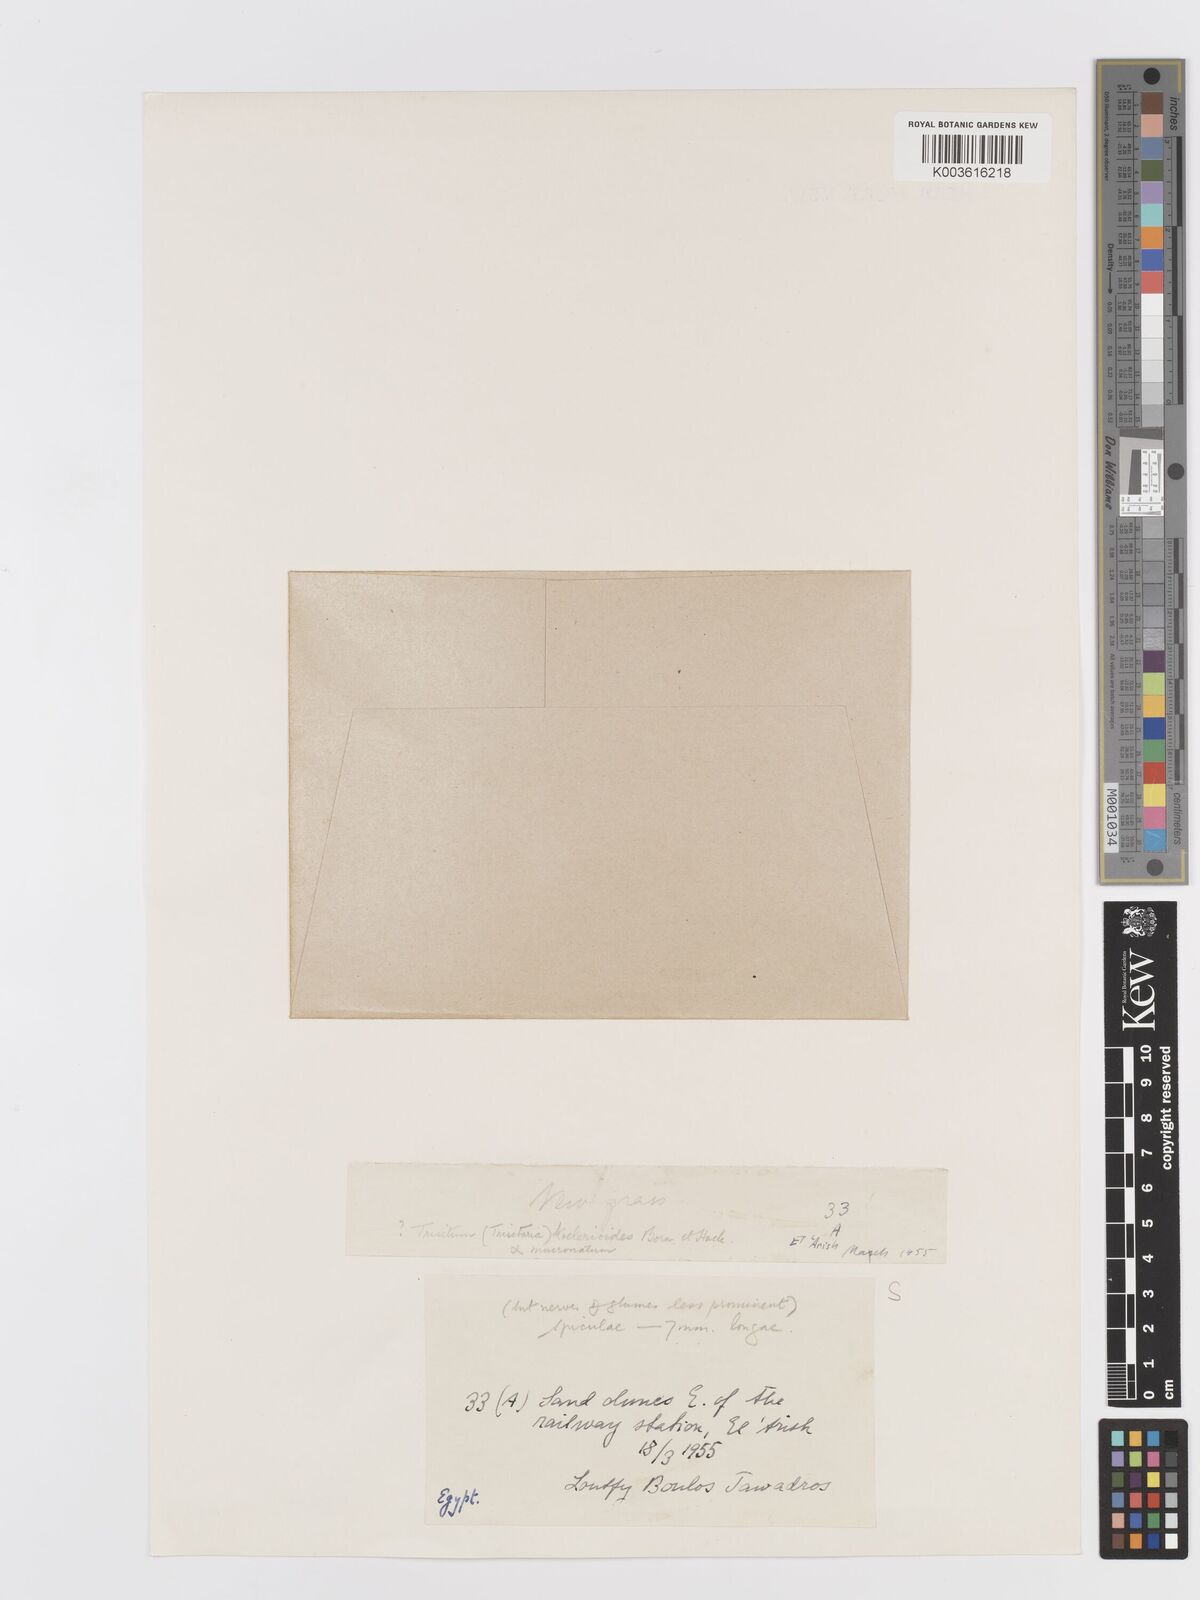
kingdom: Plantae
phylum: Tracheophyta
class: Liliopsida
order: Poales
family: Poaceae
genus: Trisetaria
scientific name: Trisetaria koelerioides
